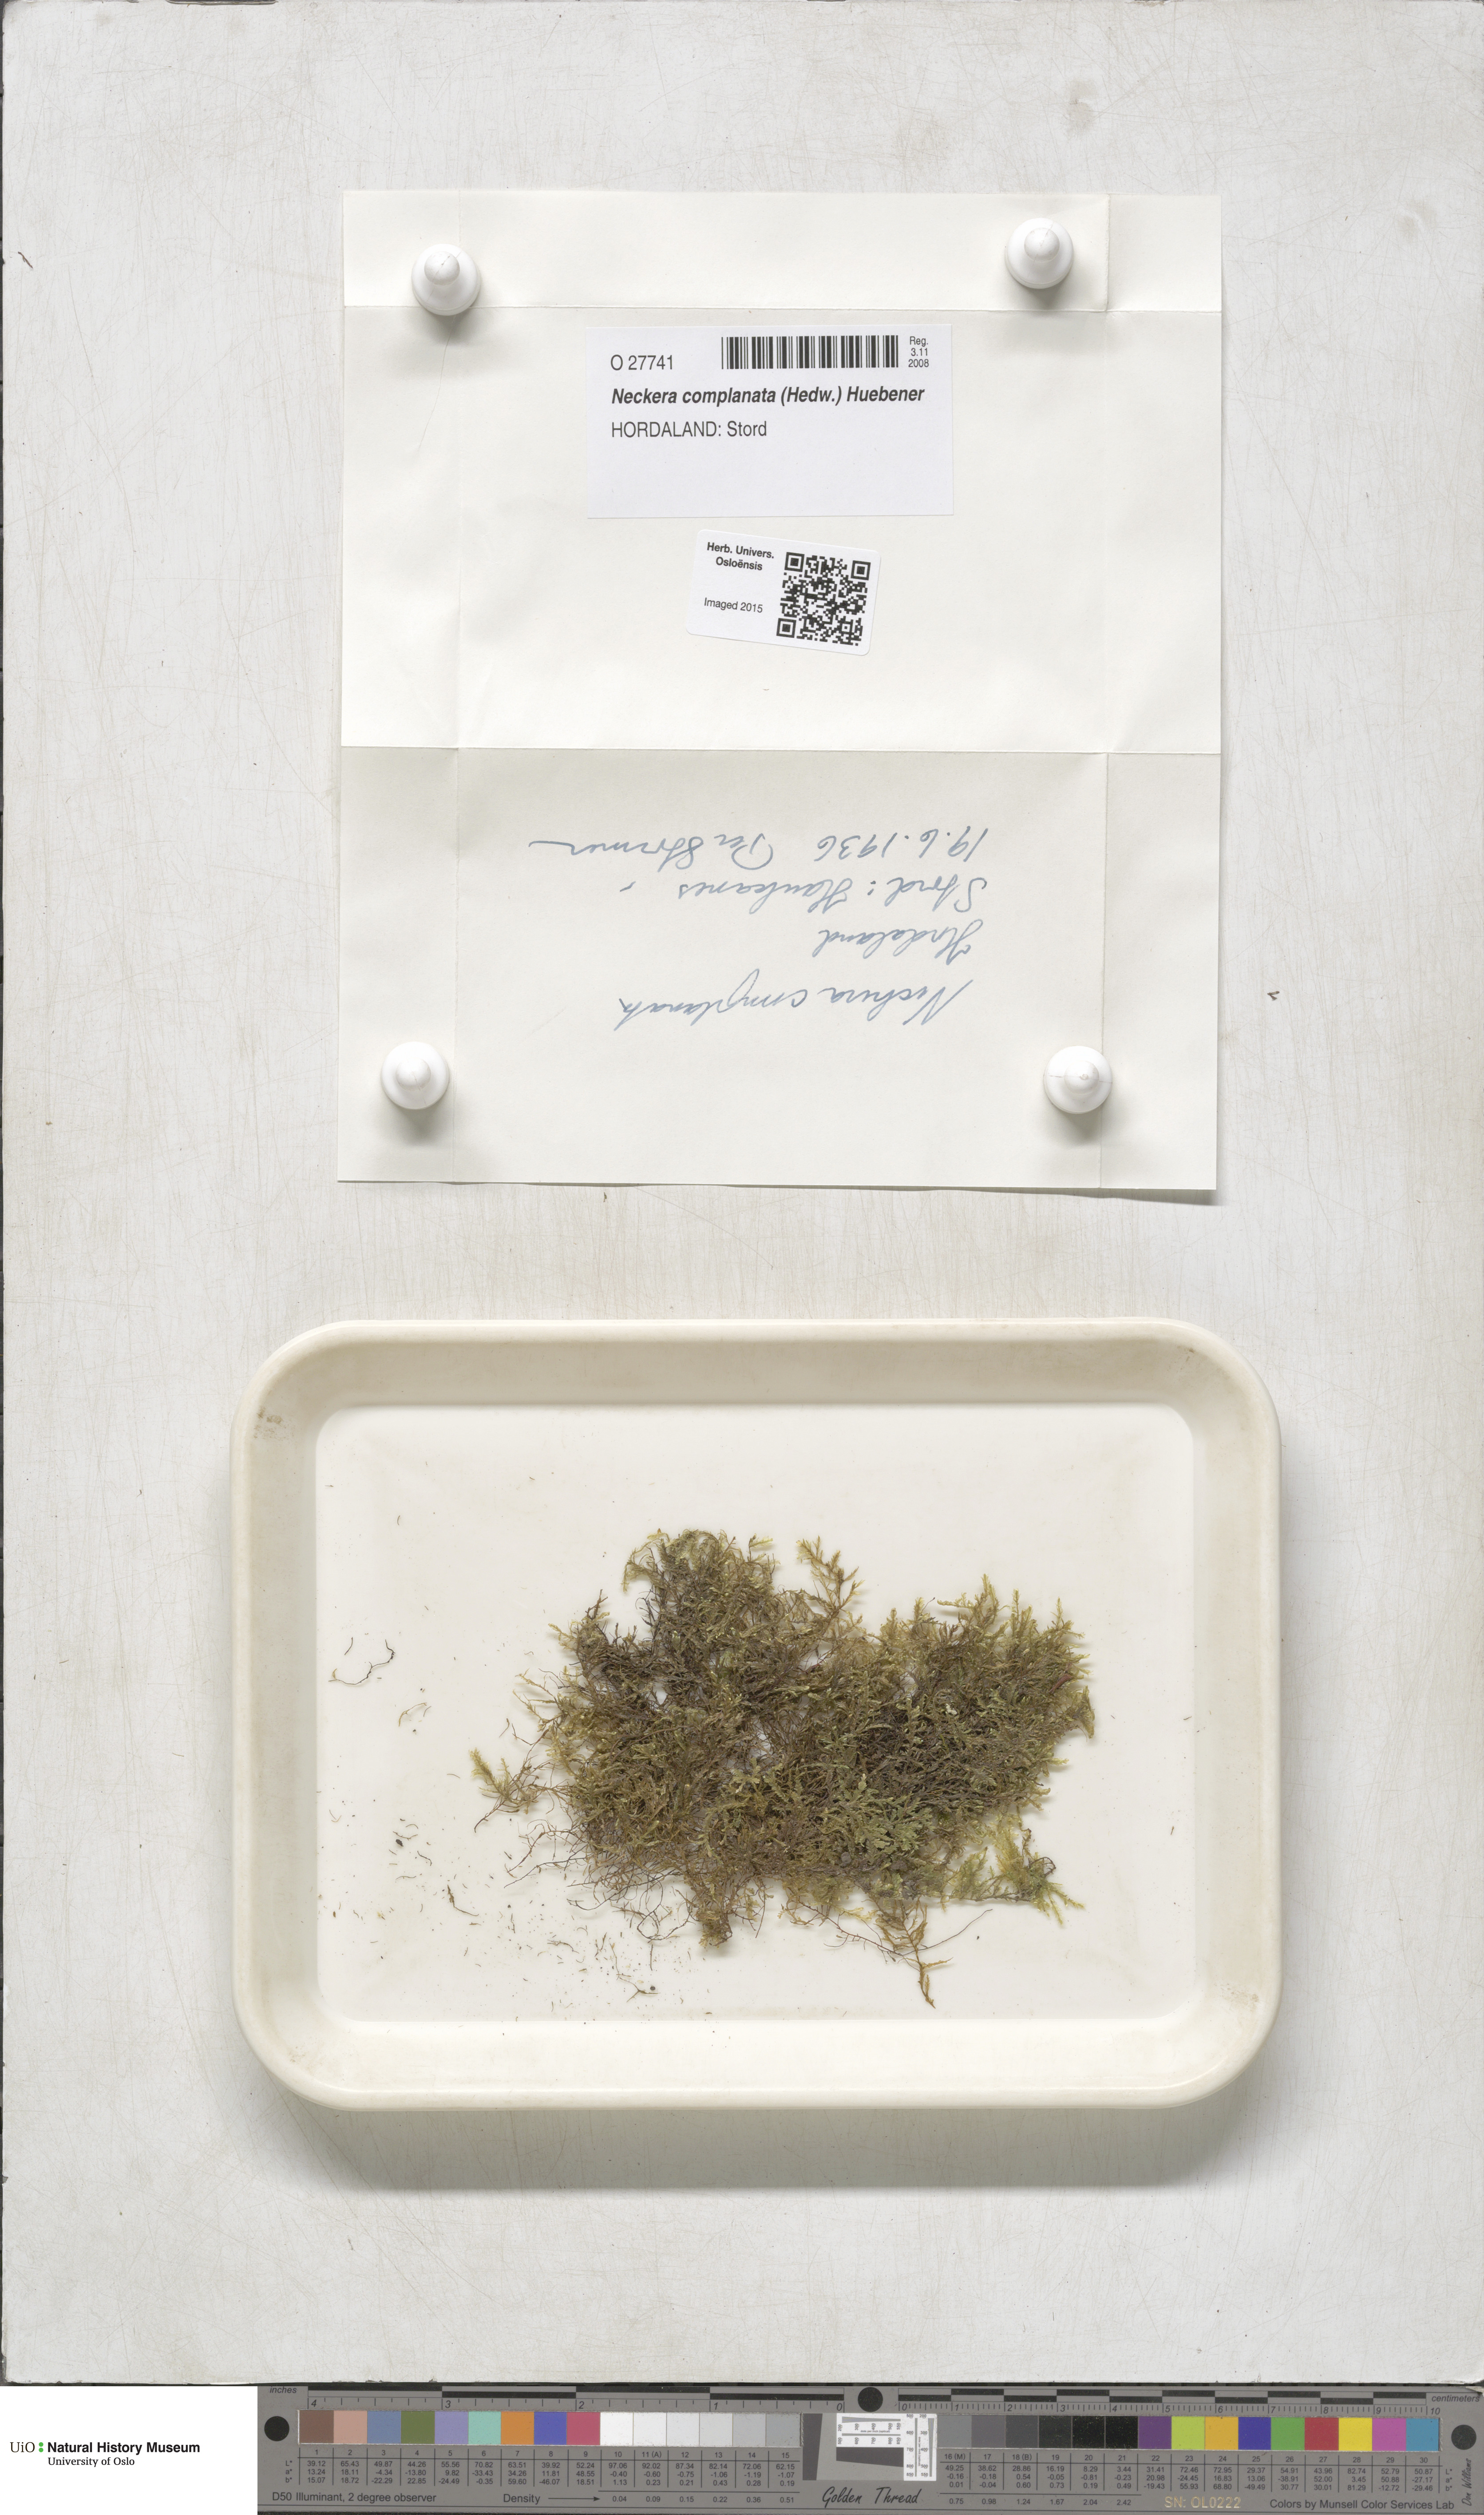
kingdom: Plantae
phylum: Bryophyta
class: Bryopsida
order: Hypnales
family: Neckeraceae
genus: Alleniella
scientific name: Alleniella complanata
